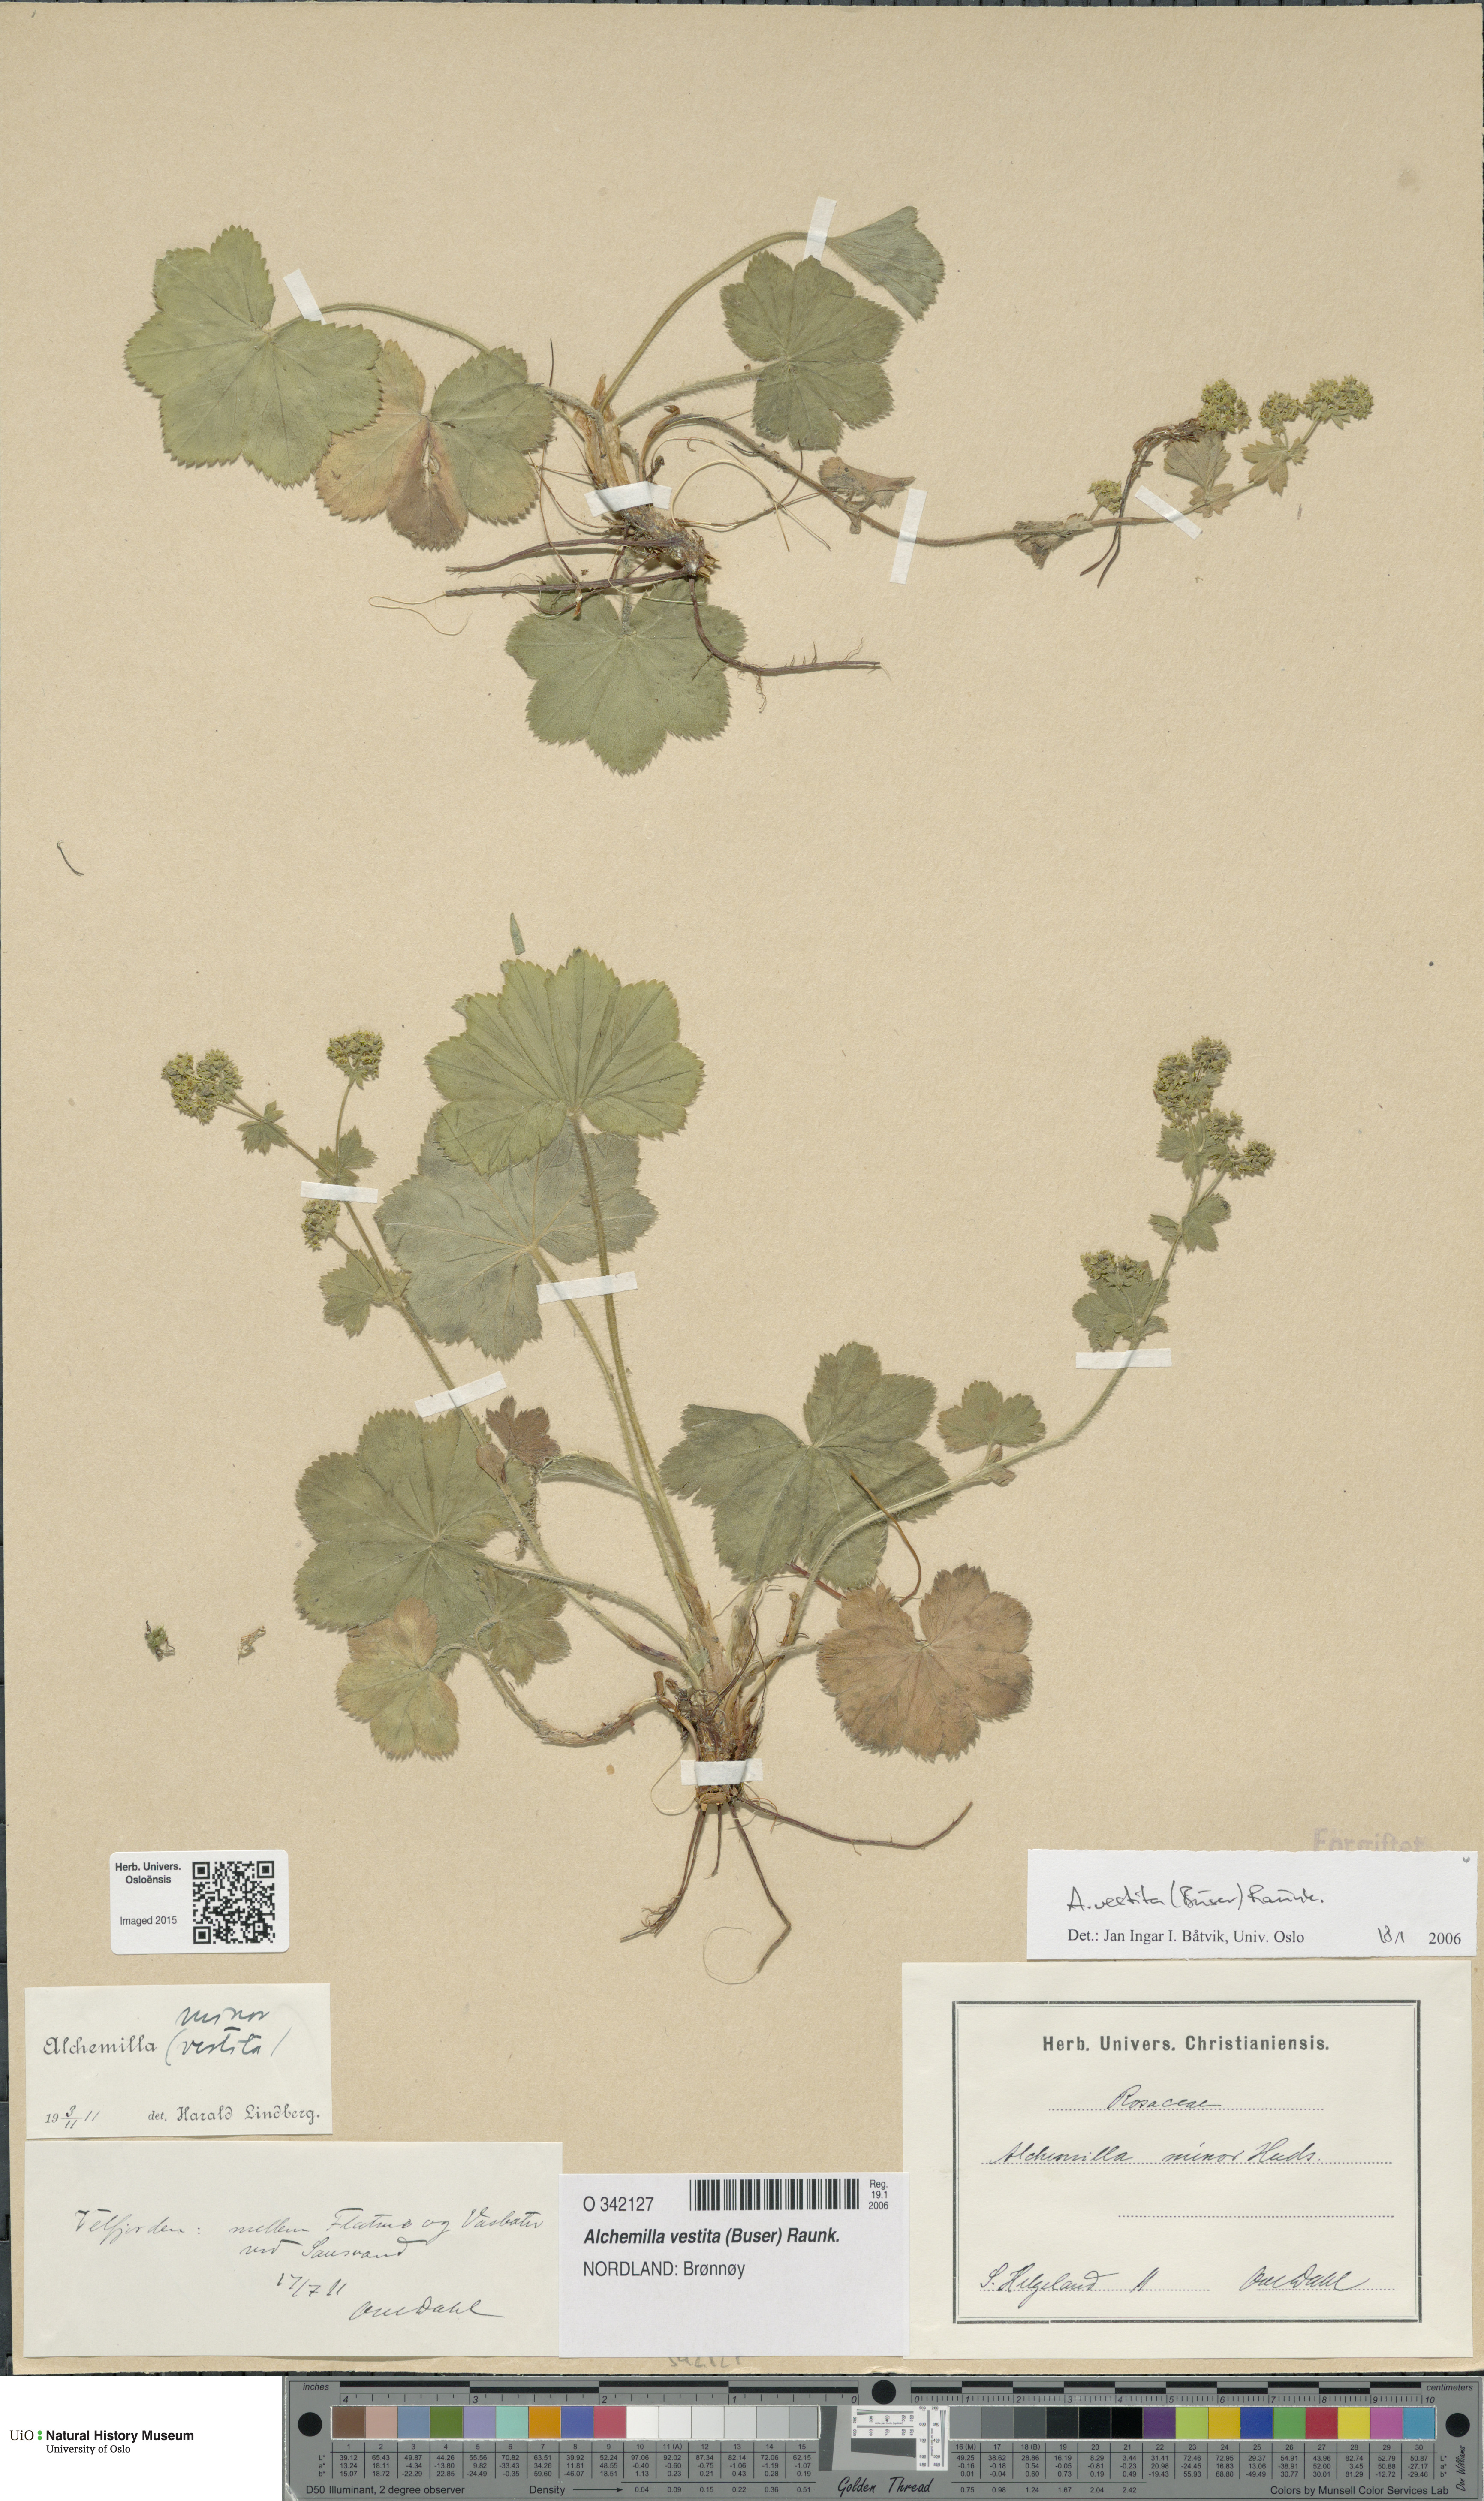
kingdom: Plantae
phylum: Tracheophyta
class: Magnoliopsida
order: Rosales
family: Rosaceae
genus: Alchemilla
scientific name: Alchemilla filicaulis
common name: Hairy lady's-mantle
